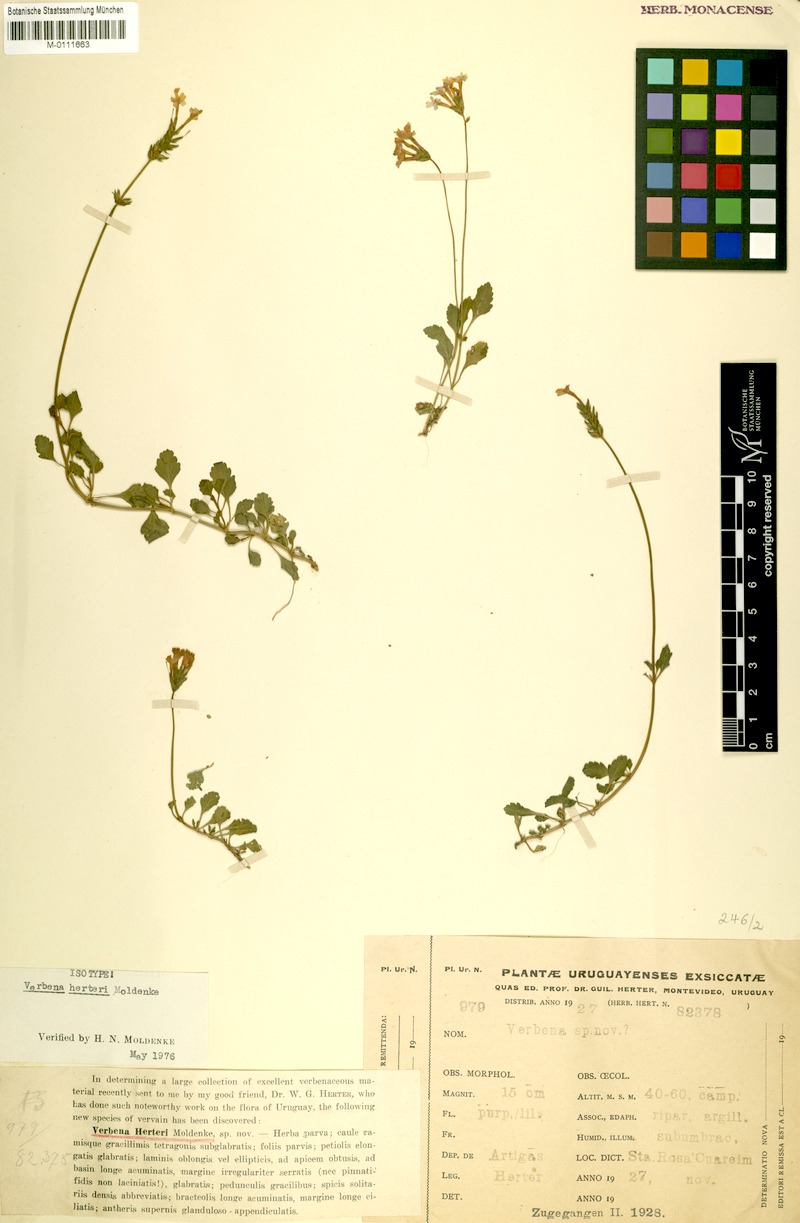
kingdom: Plantae
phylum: Tracheophyta
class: Magnoliopsida
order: Lamiales
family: Verbenaceae
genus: Verbena
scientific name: Verbena herteri
